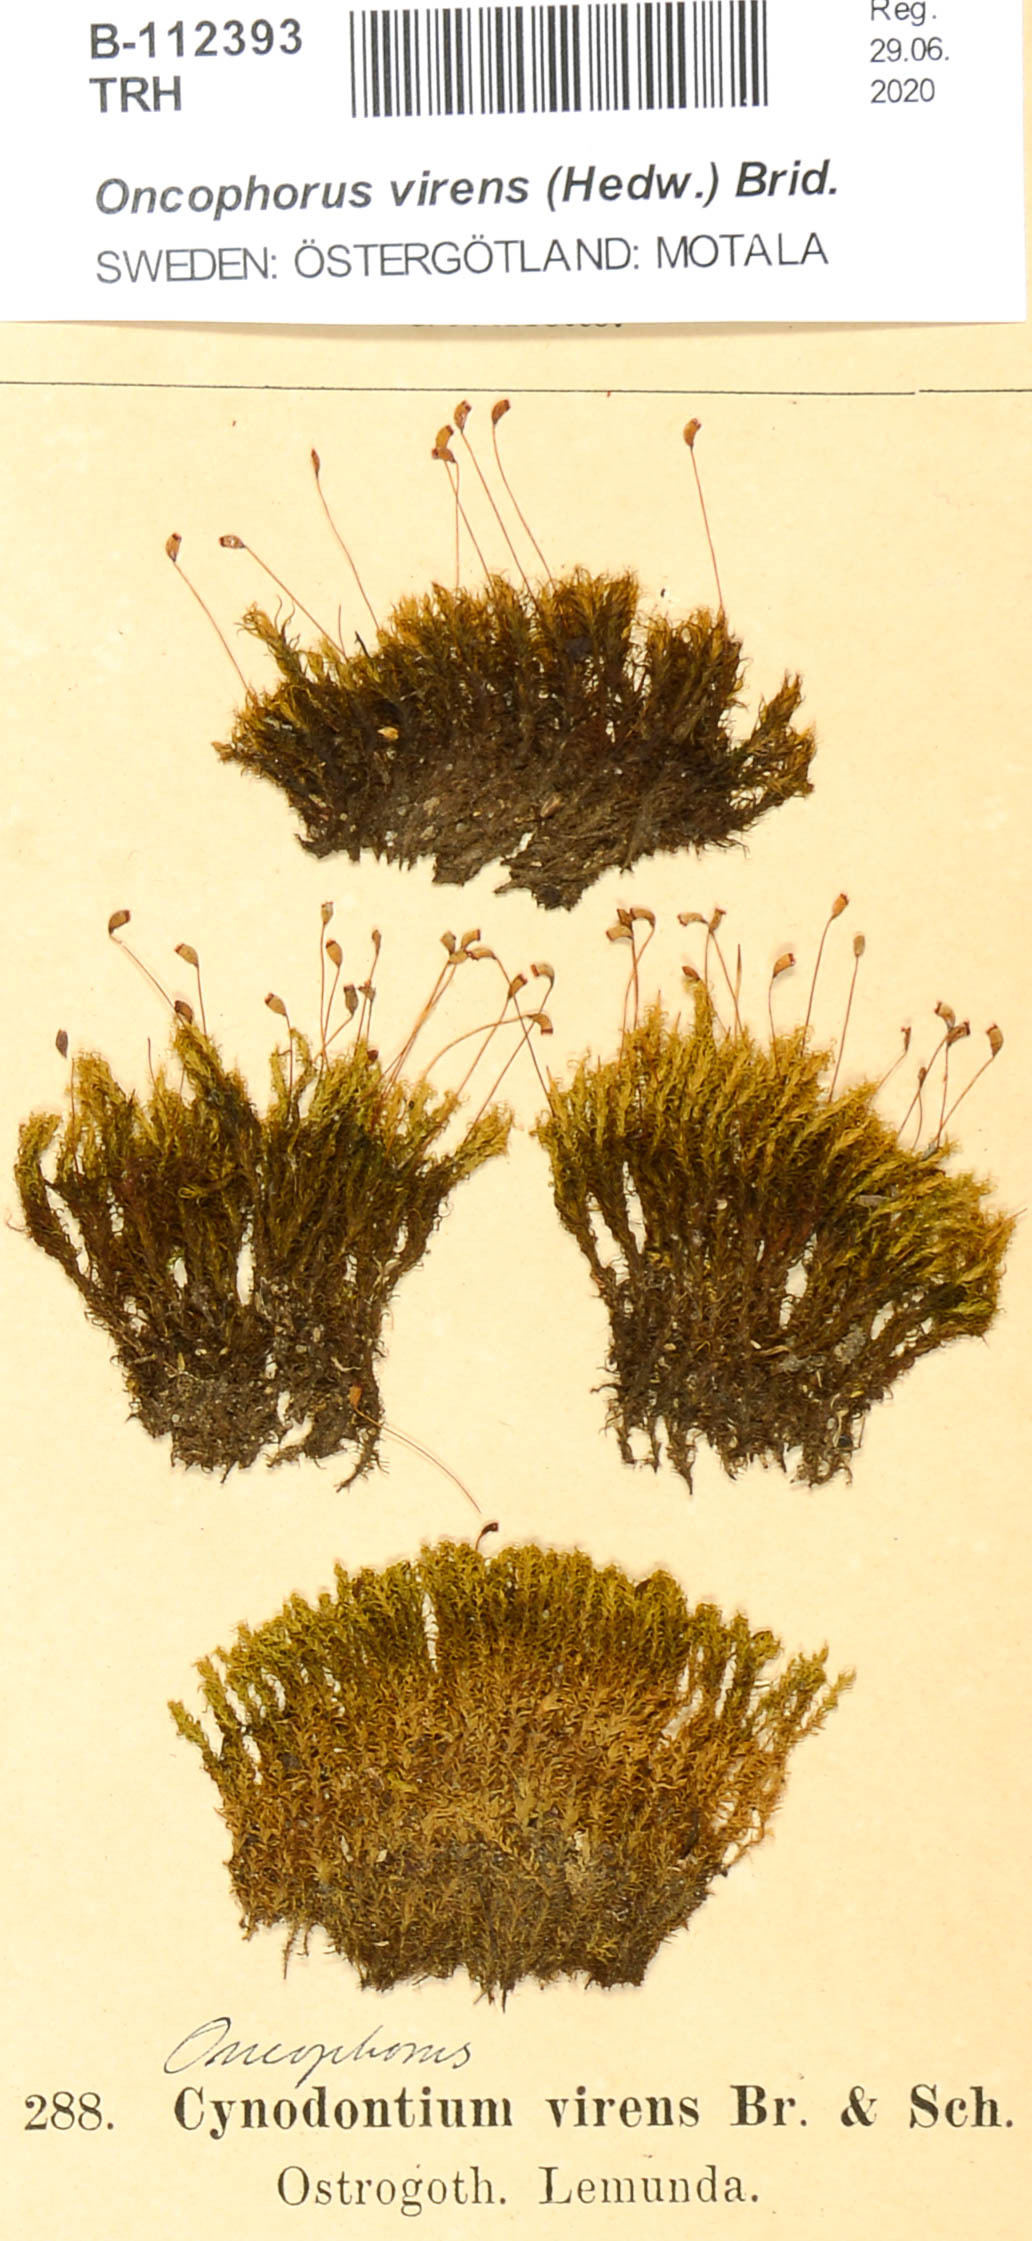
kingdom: Plantae
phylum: Bryophyta
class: Bryopsida
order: Dicranales
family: Rhabdoweisiaceae
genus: Oncophorus
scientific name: Oncophorus virens
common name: Green spur moss
